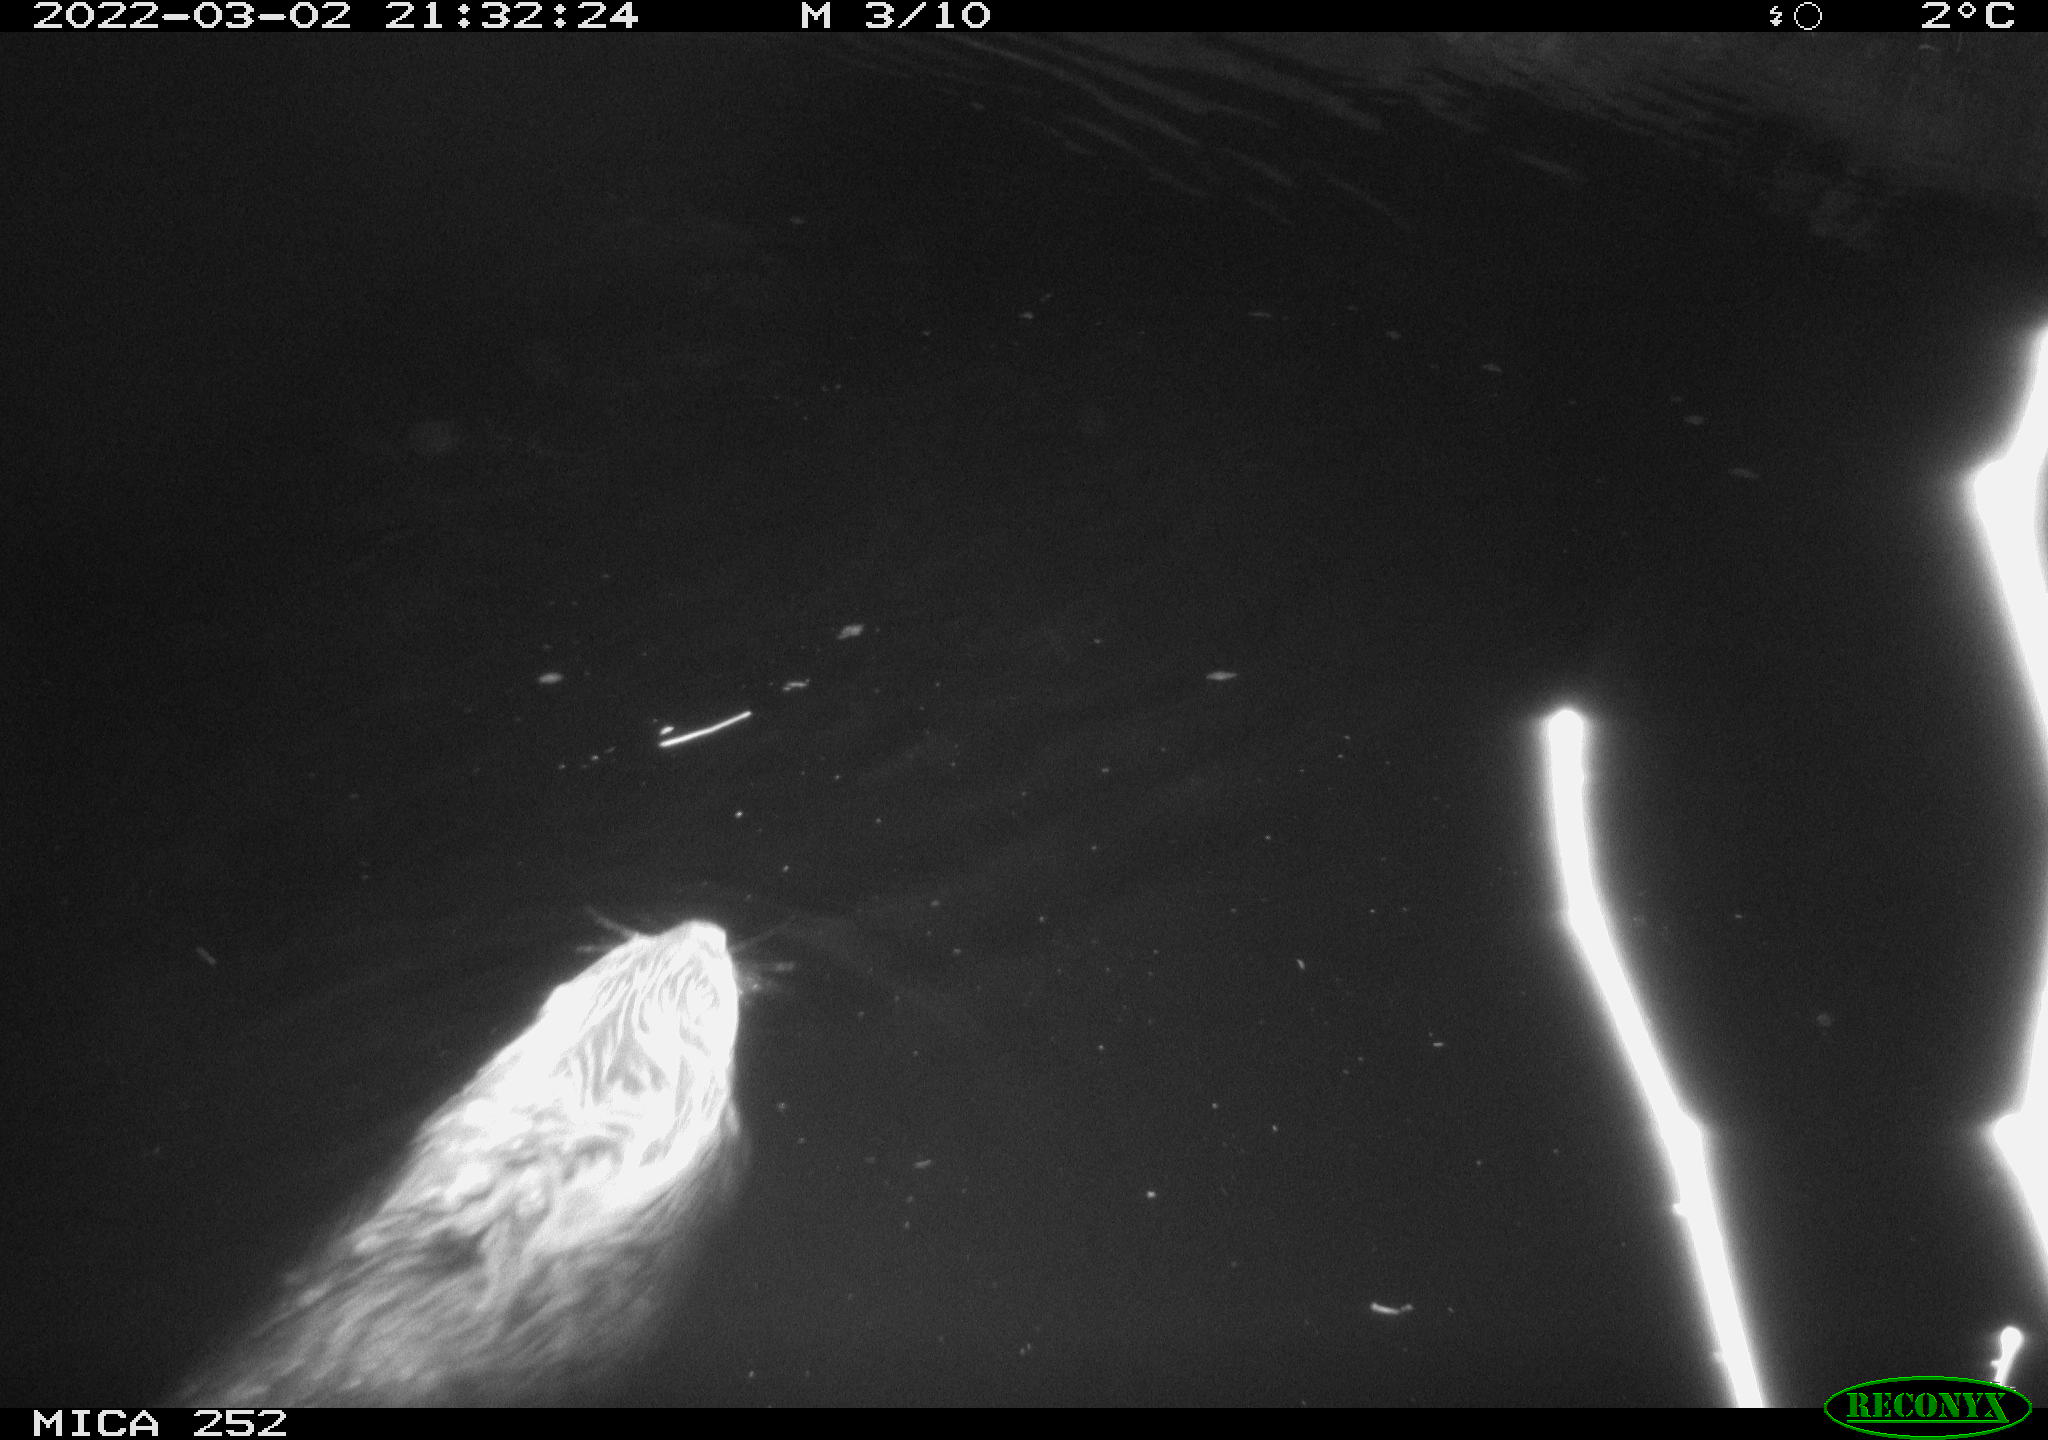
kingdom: Animalia
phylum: Chordata
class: Mammalia
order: Rodentia
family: Castoridae
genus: Castor
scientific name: Castor fiber
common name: Eurasian beaver
